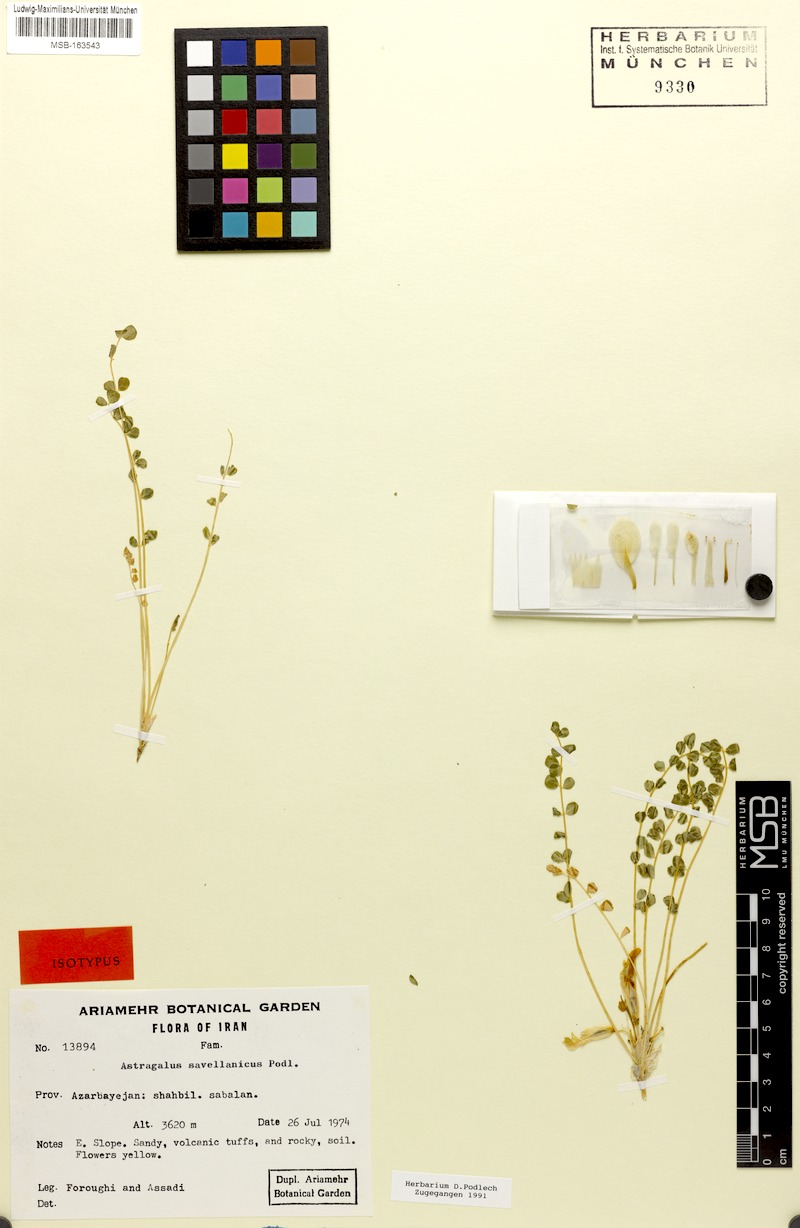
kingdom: Plantae
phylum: Tracheophyta
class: Magnoliopsida
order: Fabales
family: Fabaceae
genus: Astragalus
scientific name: Astragalus savellanicus
